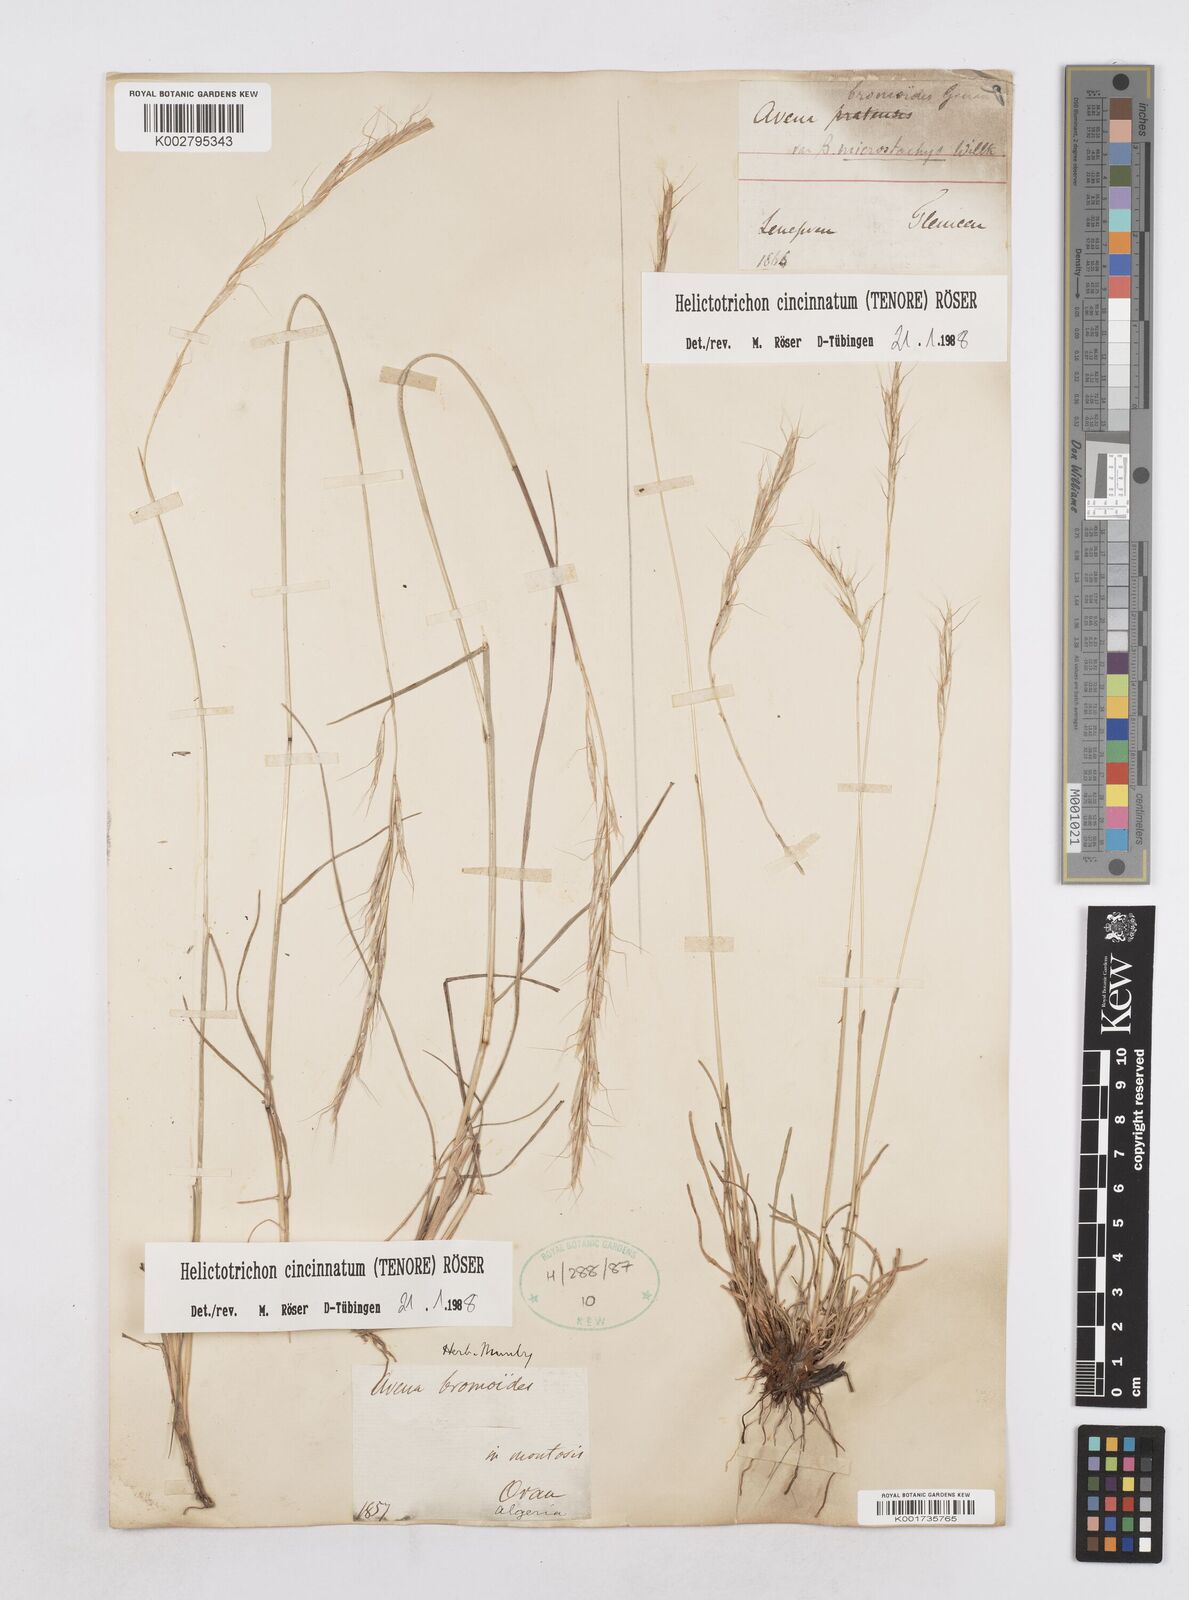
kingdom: Plantae
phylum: Tracheophyta
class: Liliopsida
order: Poales
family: Poaceae
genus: Helictochloa
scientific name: Helictochloa cincinnata
